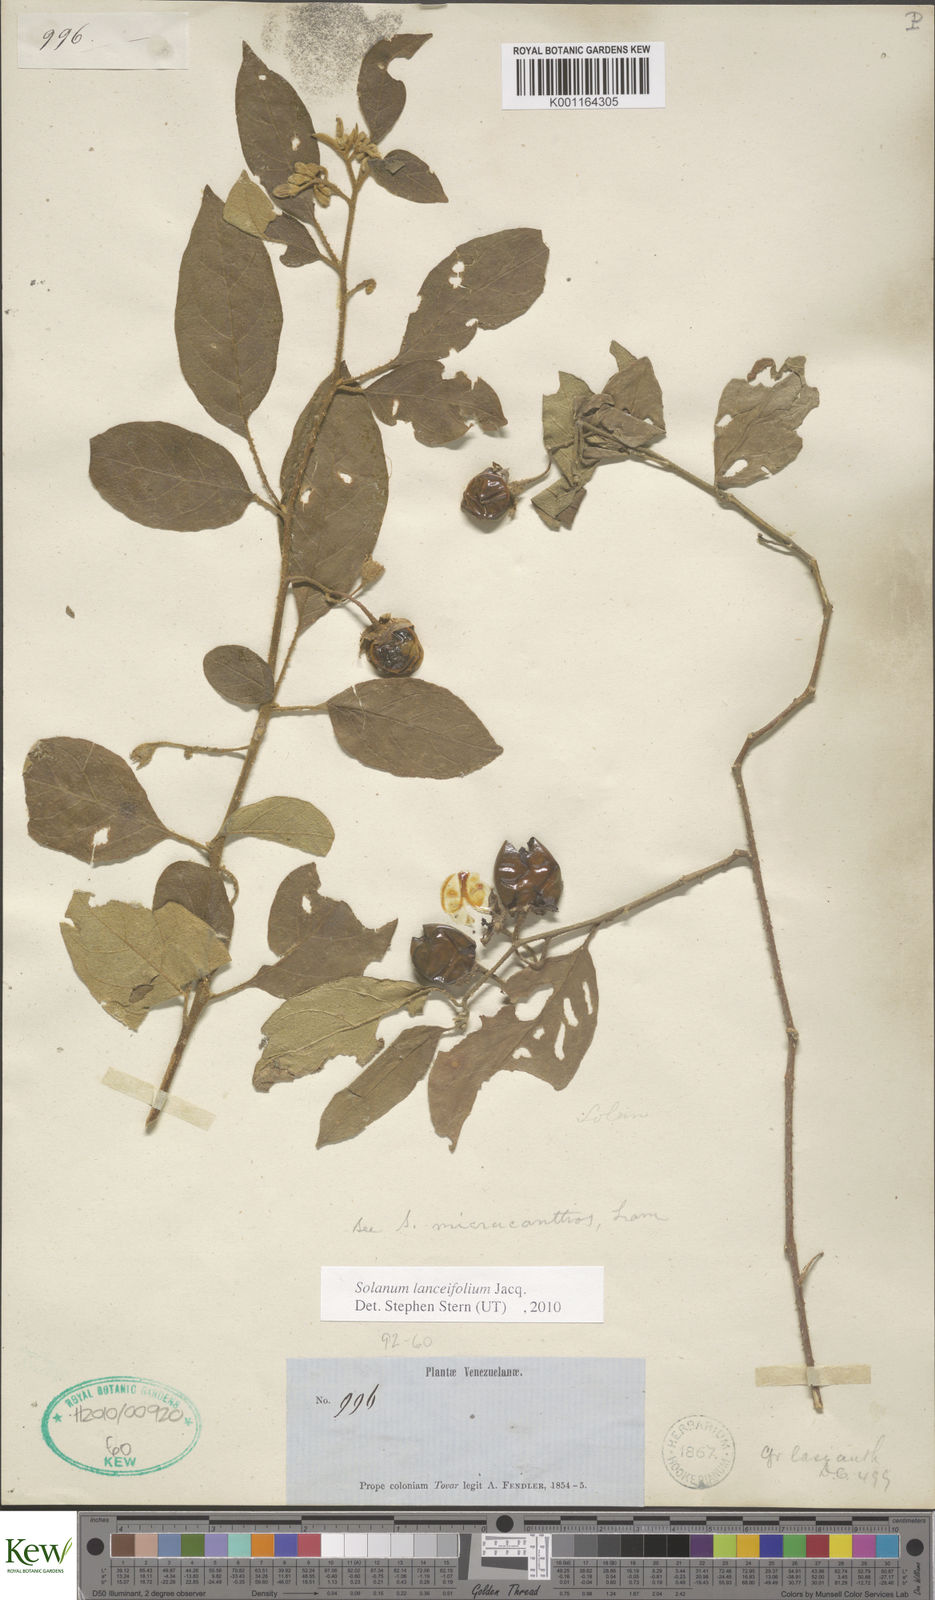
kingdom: Plantae
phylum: Tracheophyta
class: Magnoliopsida
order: Solanales
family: Solanaceae
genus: Solanum
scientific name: Solanum lanceifolium
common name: Lanceleaf nightshade
